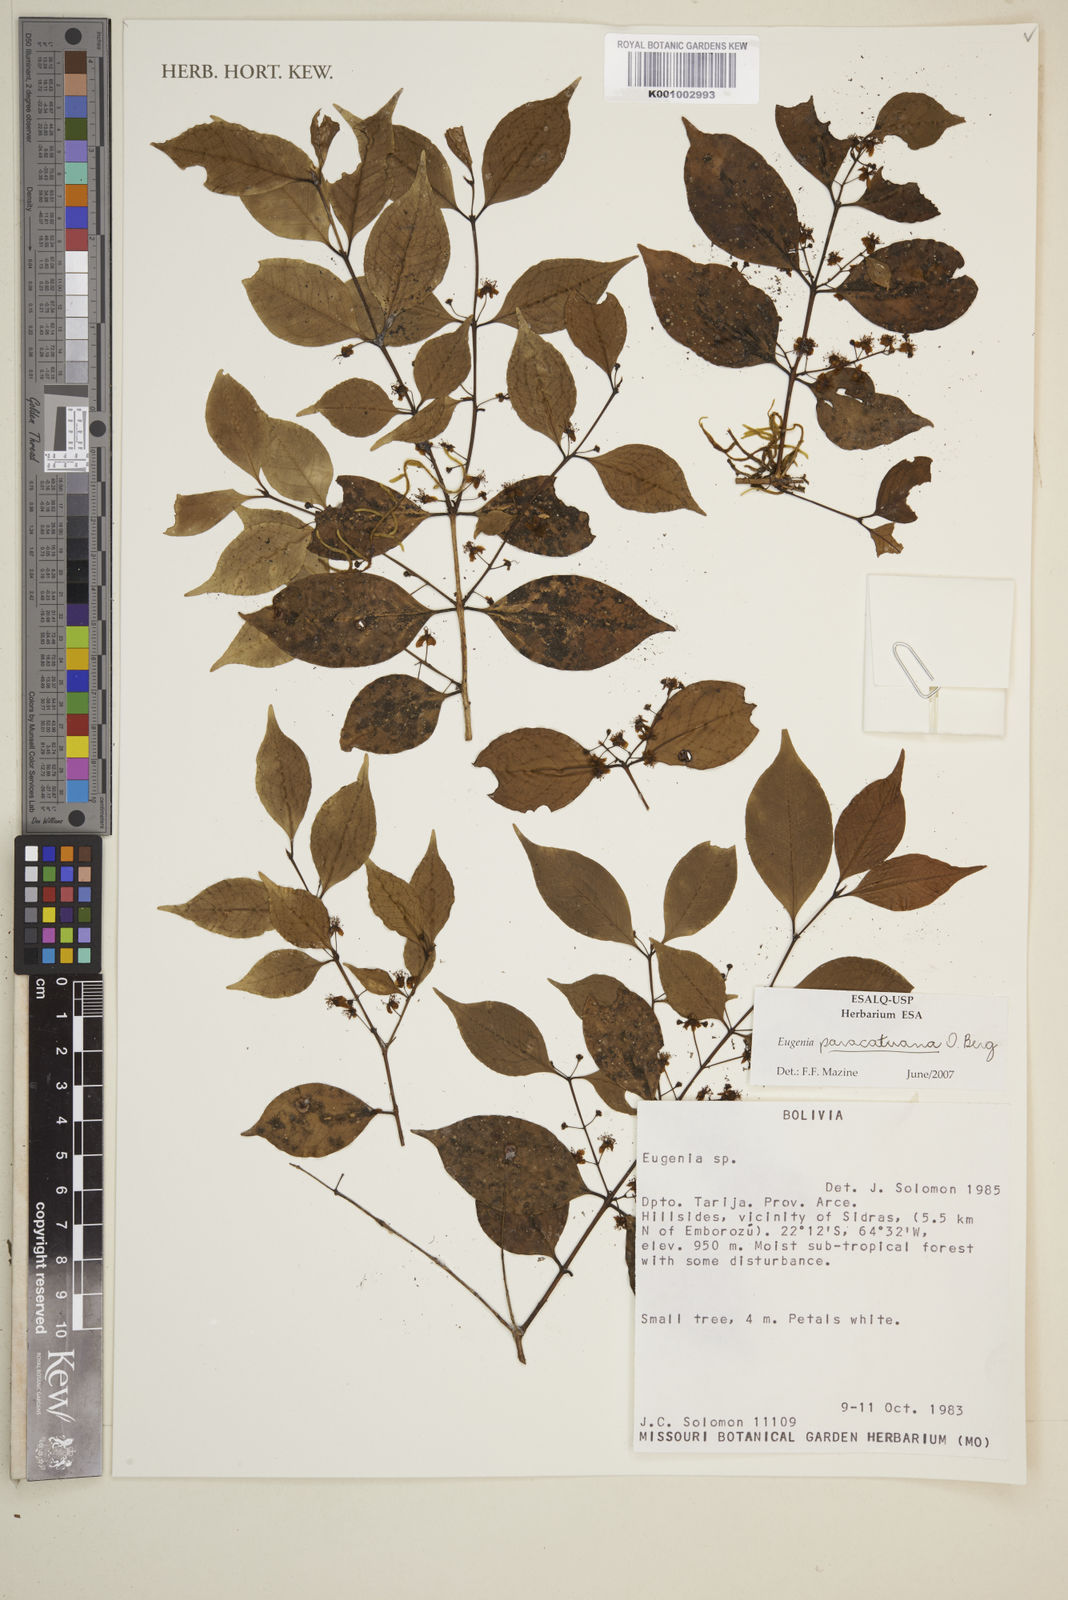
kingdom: Plantae
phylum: Tracheophyta
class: Magnoliopsida
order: Myrtales
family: Myrtaceae
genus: Eugenia
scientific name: Eugenia moraviana
